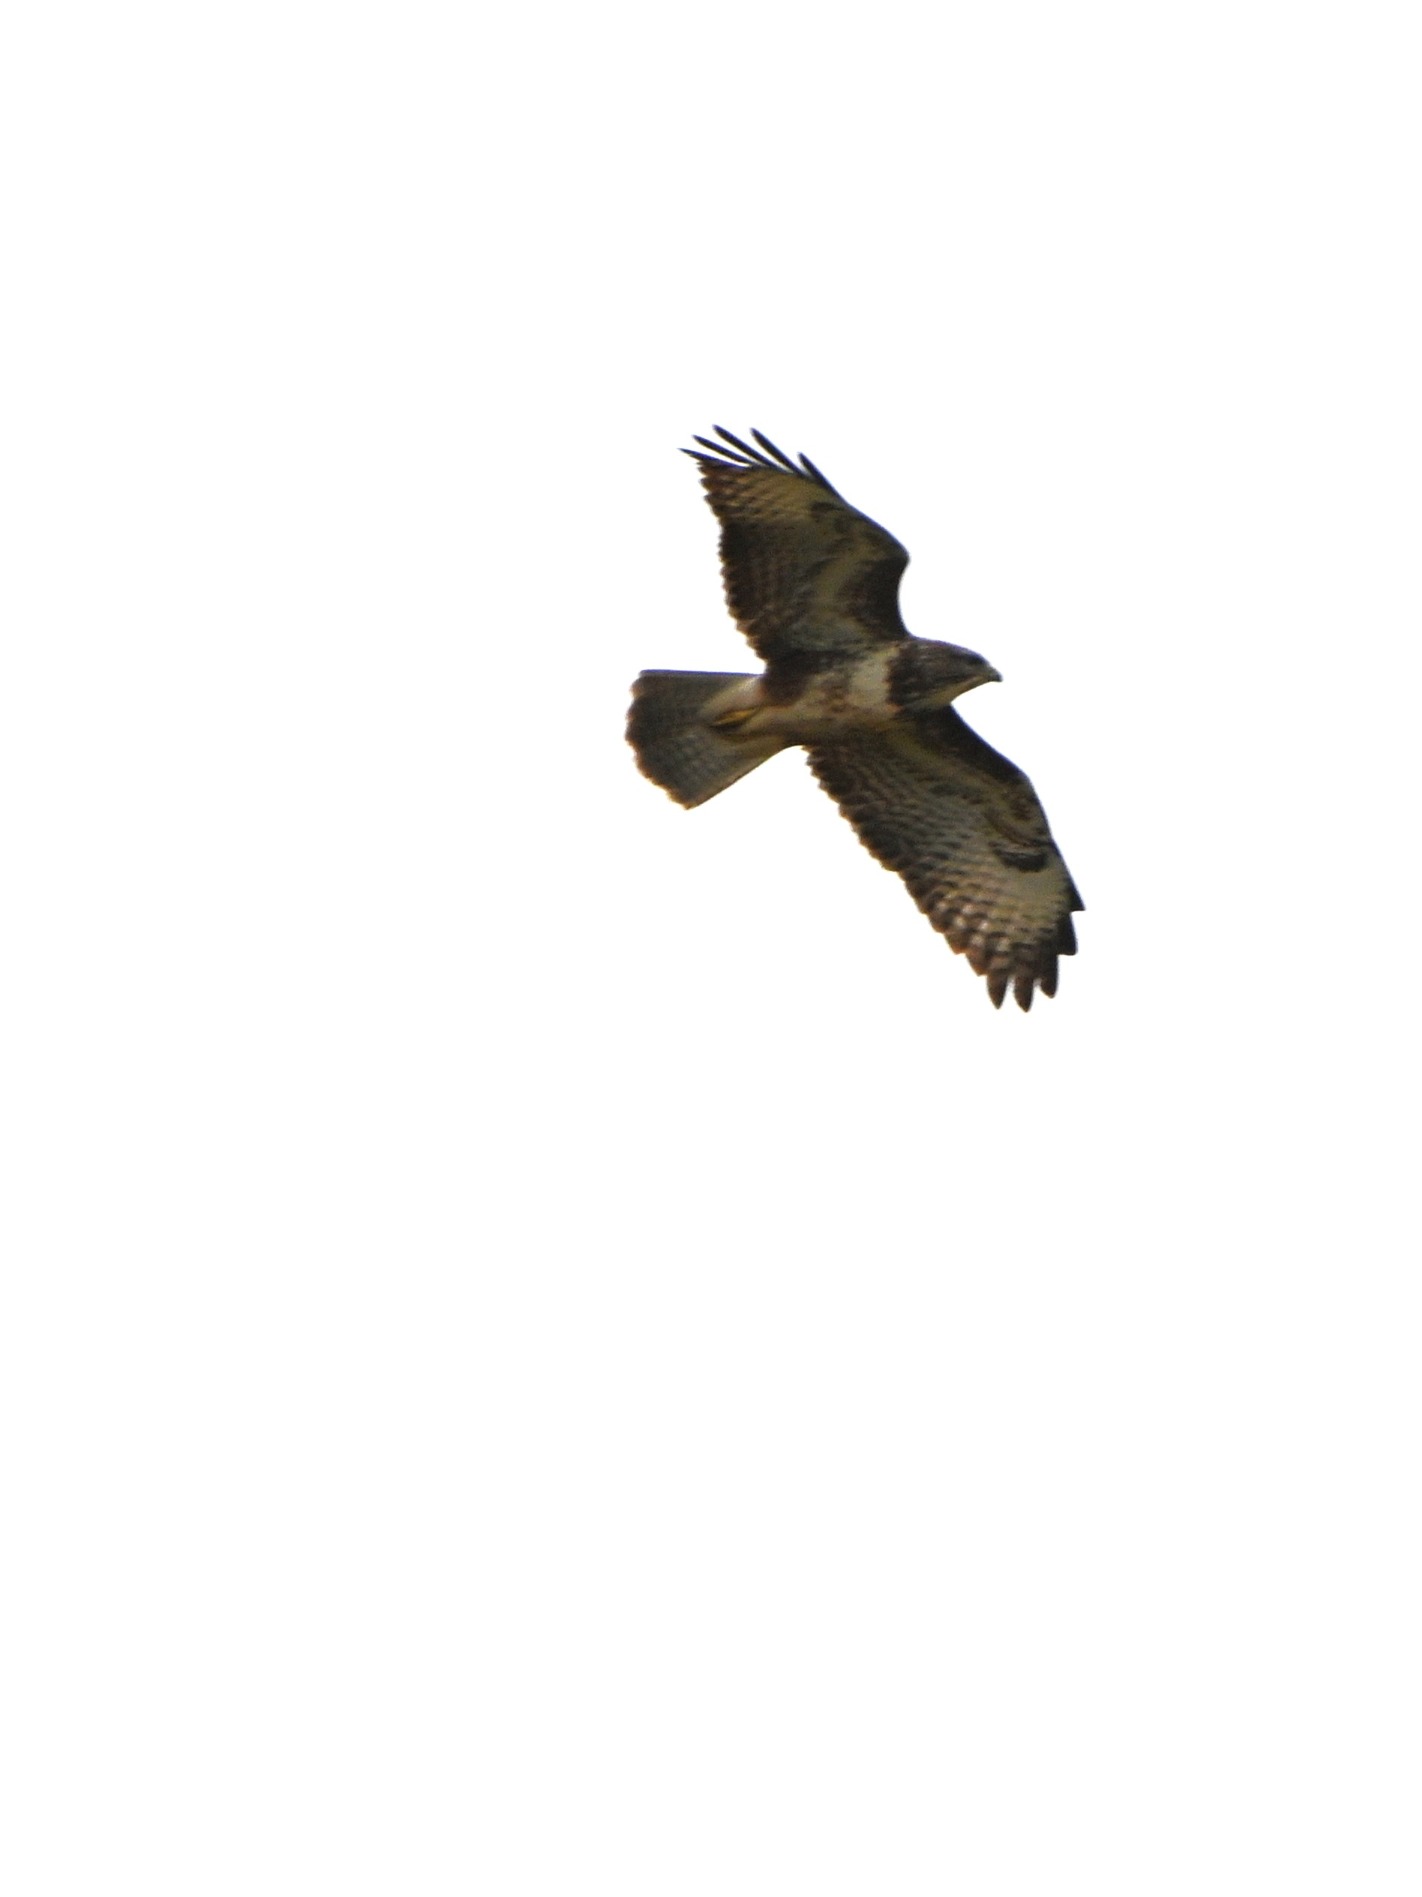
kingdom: Animalia
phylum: Chordata
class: Aves
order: Accipitriformes
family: Accipitridae
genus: Buteo
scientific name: Buteo buteo
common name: Musvåge
